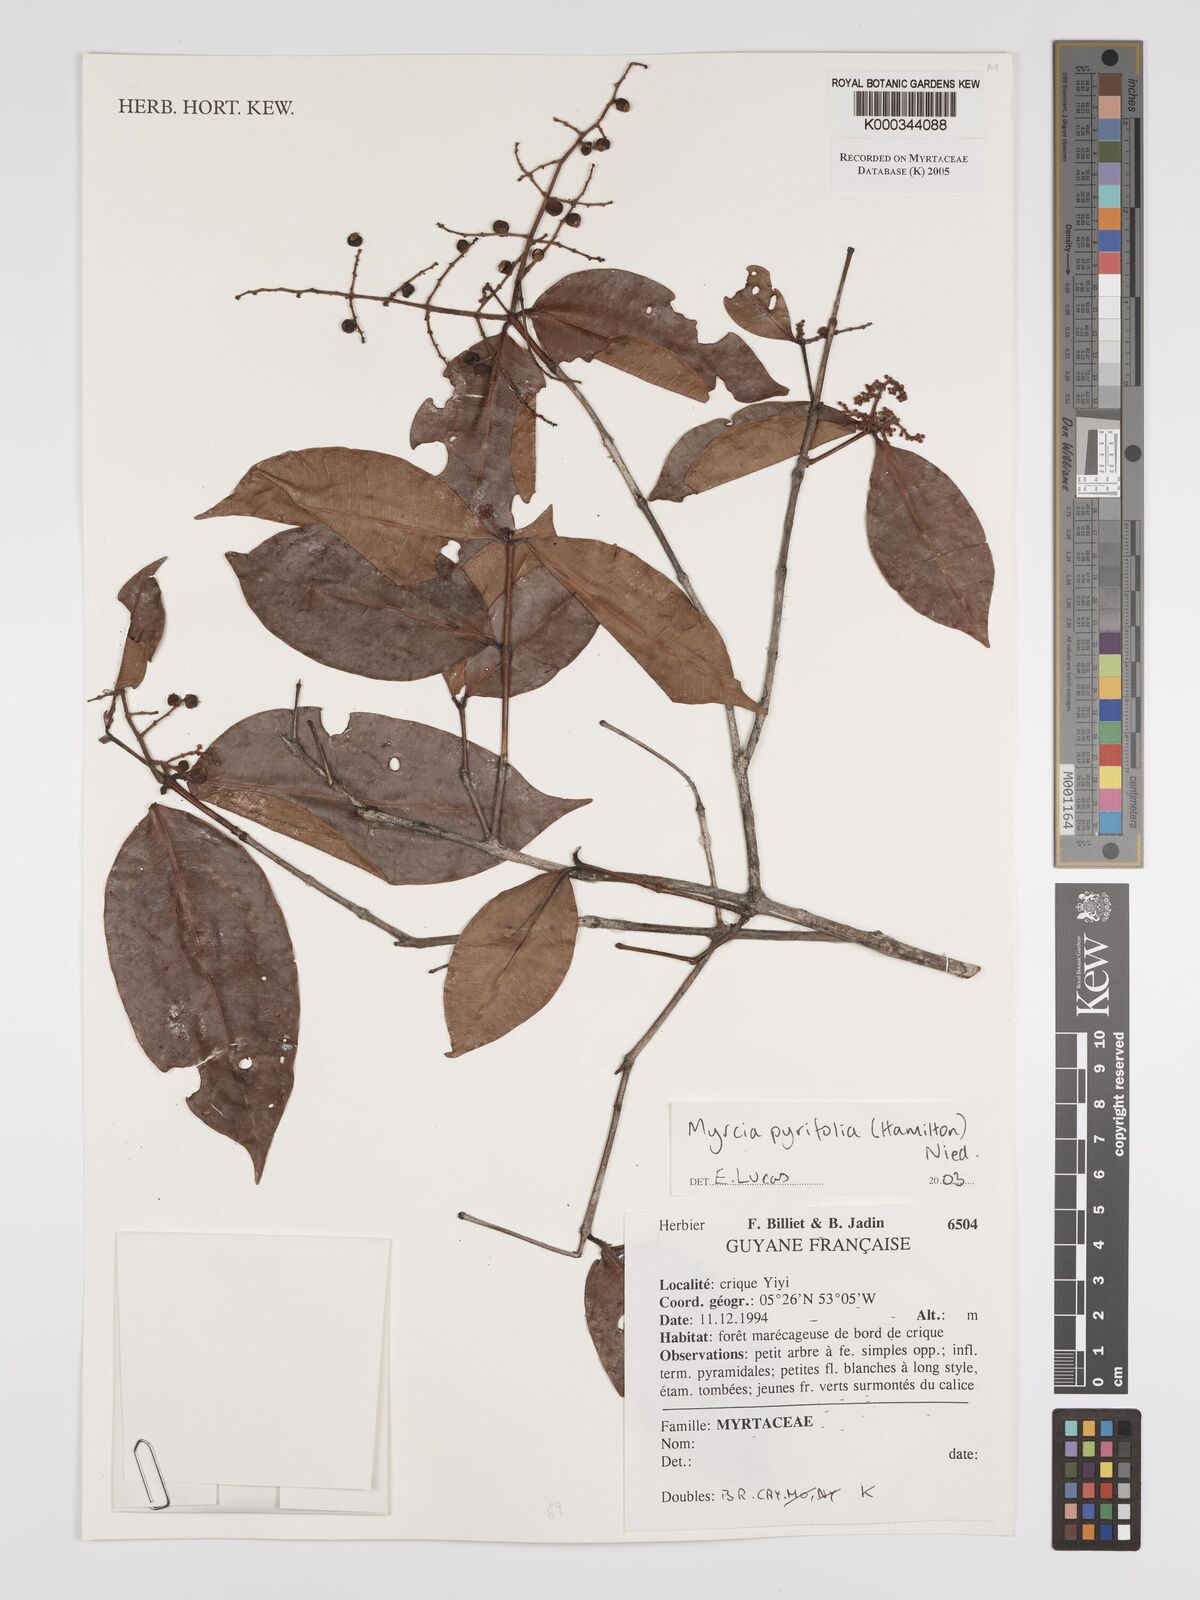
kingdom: Plantae
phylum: Tracheophyta
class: Magnoliopsida
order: Myrtales
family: Myrtaceae
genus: Myrcia
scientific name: Myrcia pyrifolia
